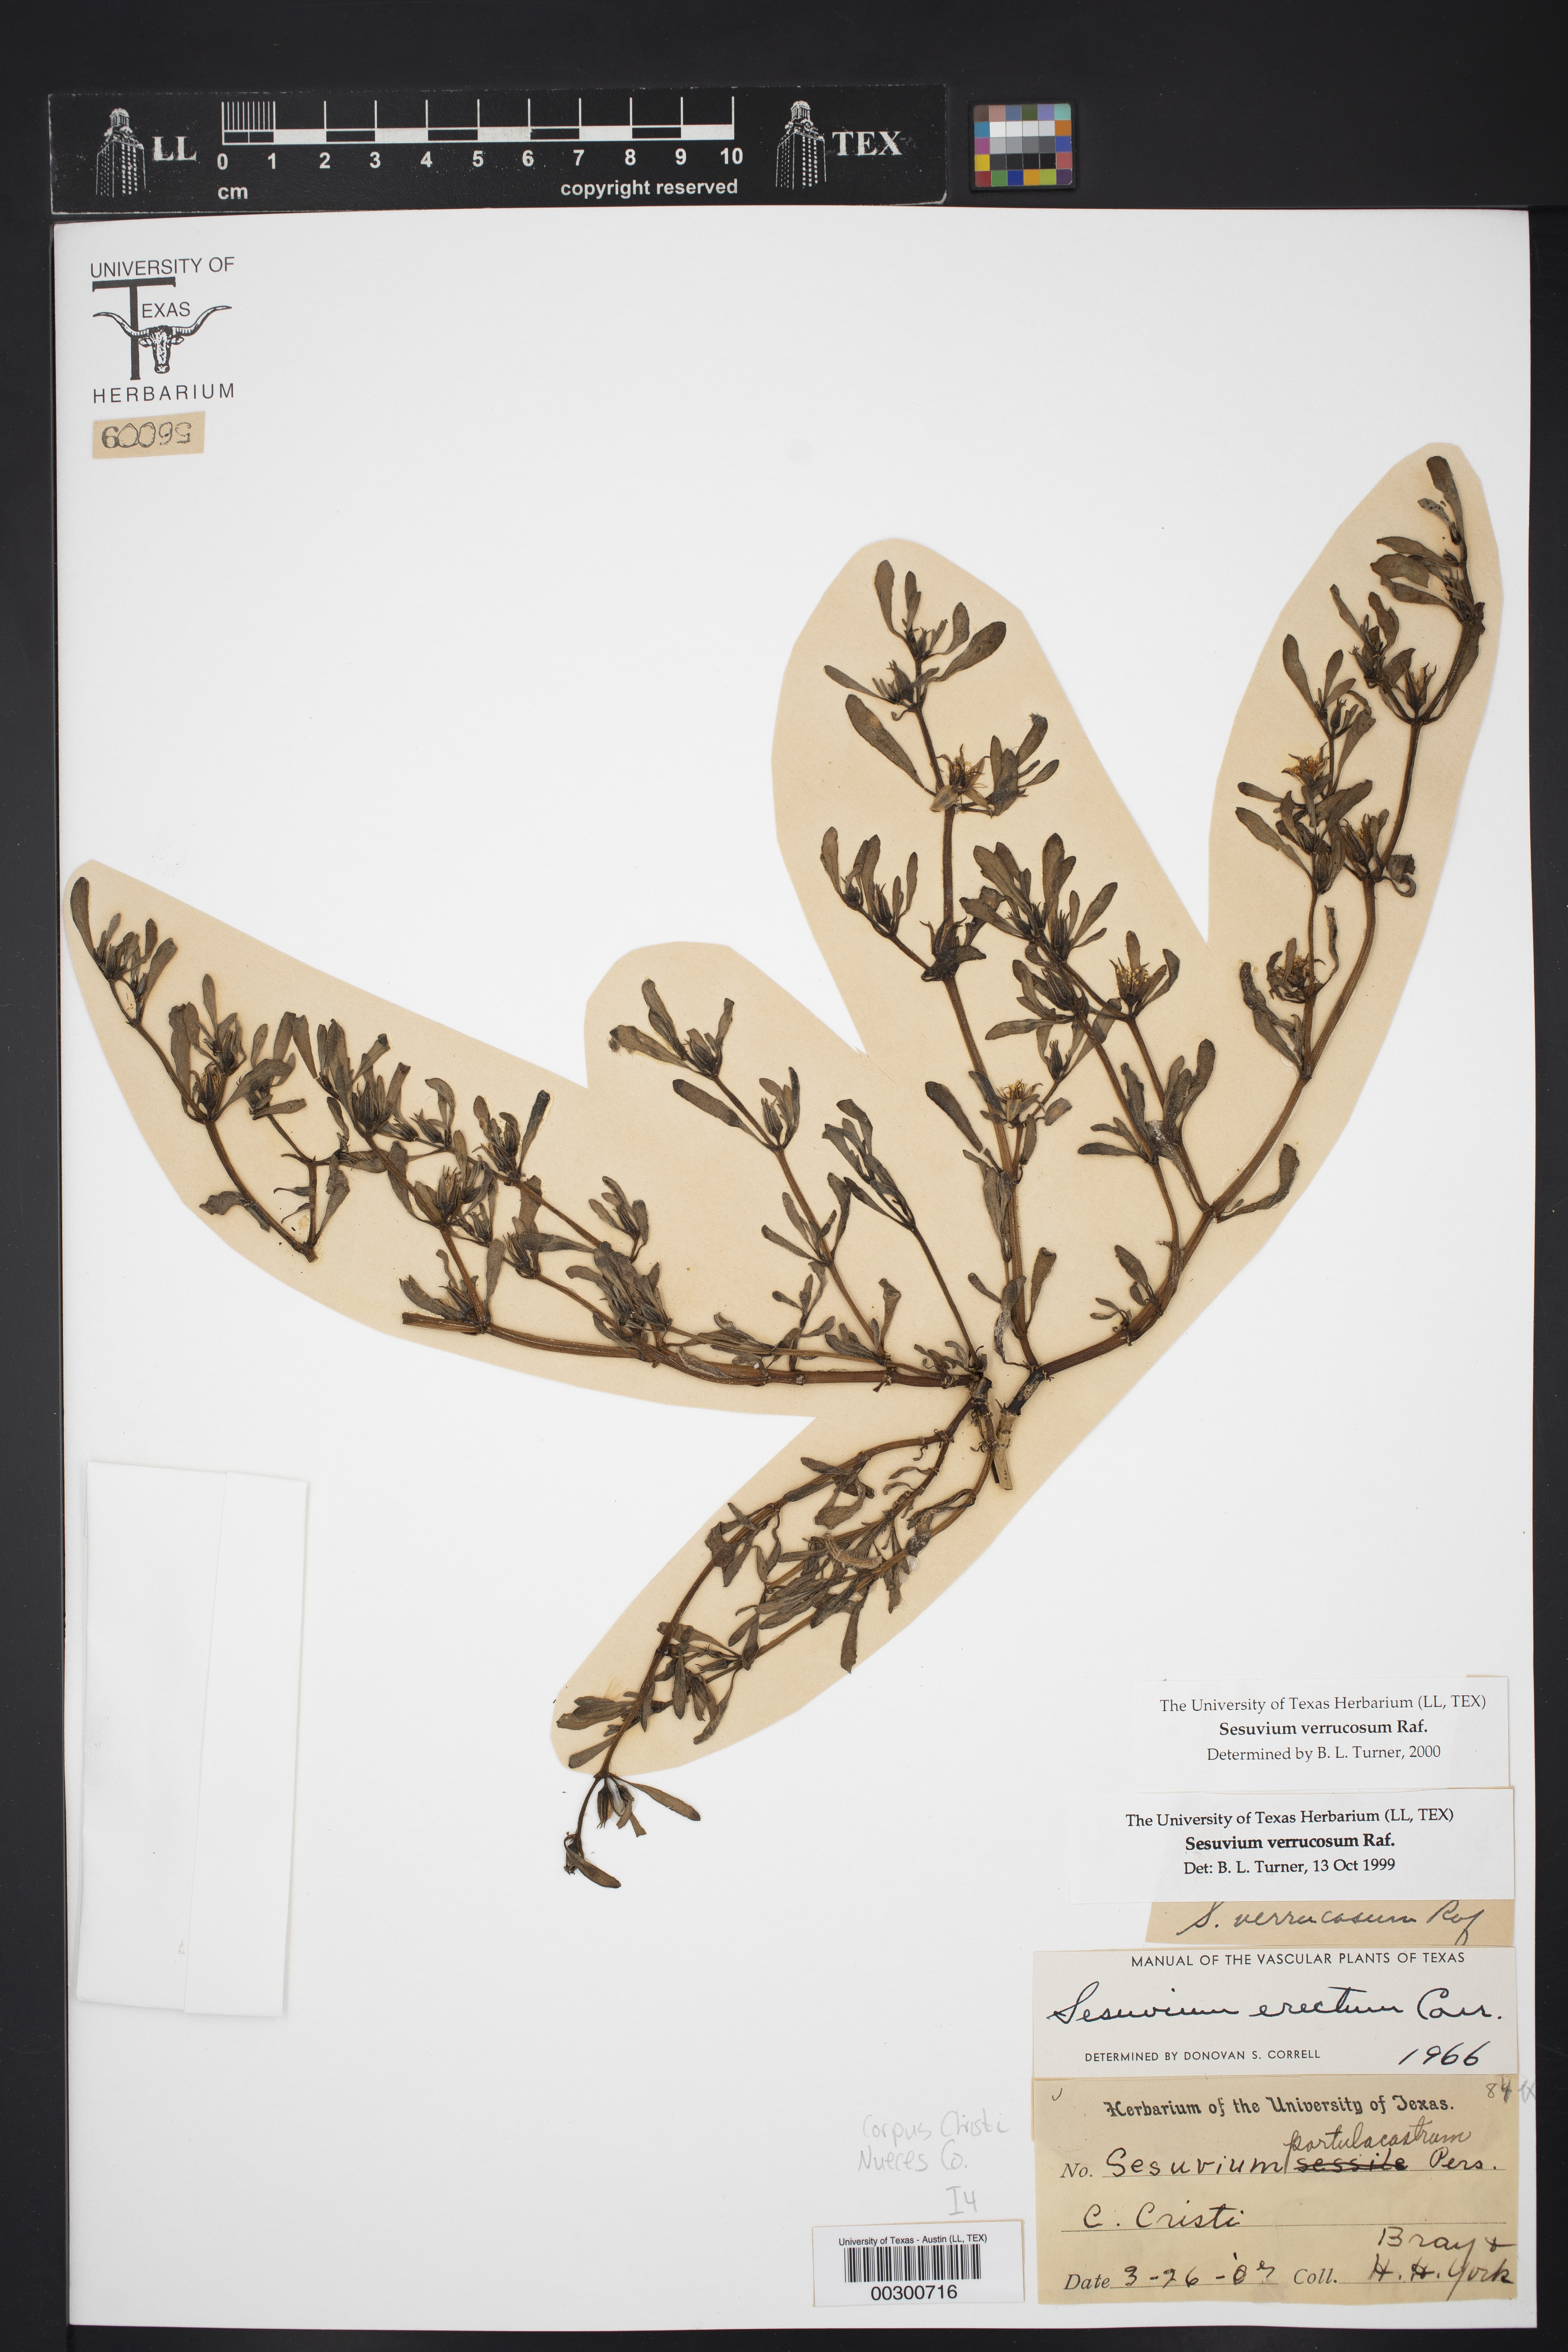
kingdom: Plantae
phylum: Tracheophyta
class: Magnoliopsida
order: Caryophyllales
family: Aizoaceae
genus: Sesuvium
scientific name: Sesuvium revolutifolium
